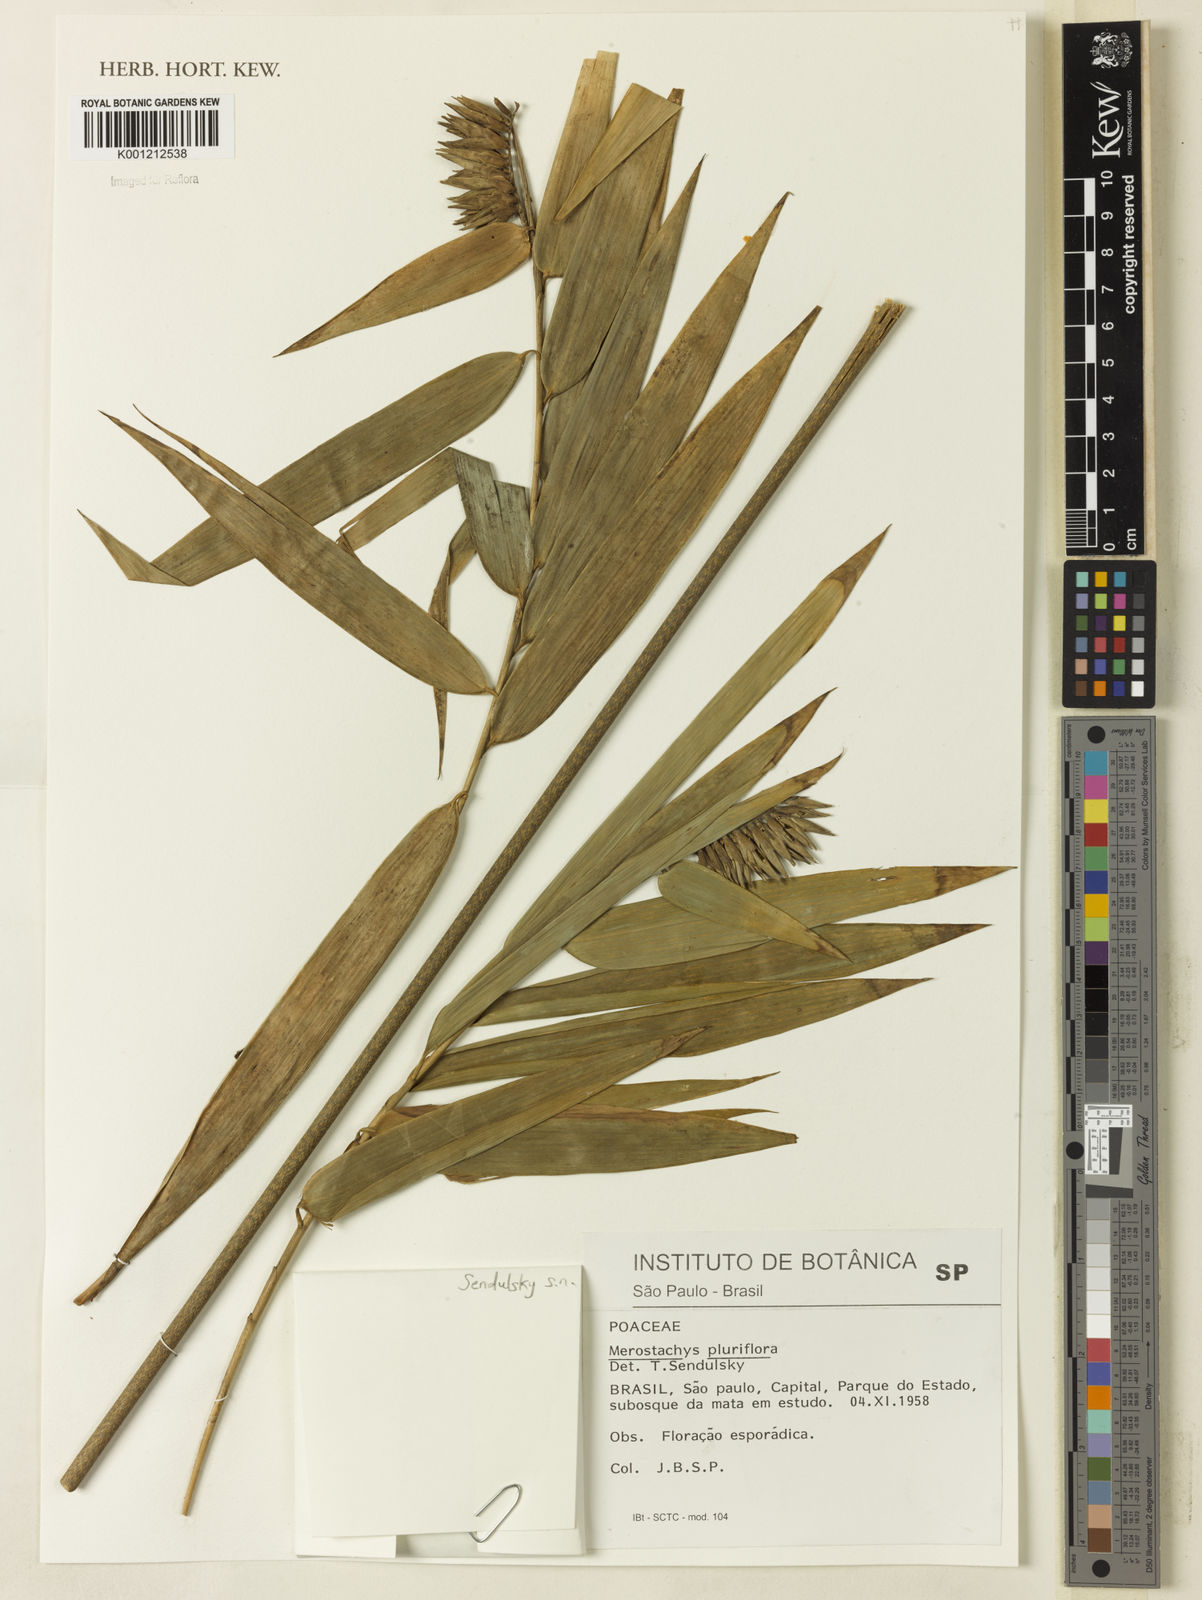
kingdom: Plantae
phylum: Tracheophyta
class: Liliopsida
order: Poales
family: Poaceae
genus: Merostachys
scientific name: Merostachys pluriflora
